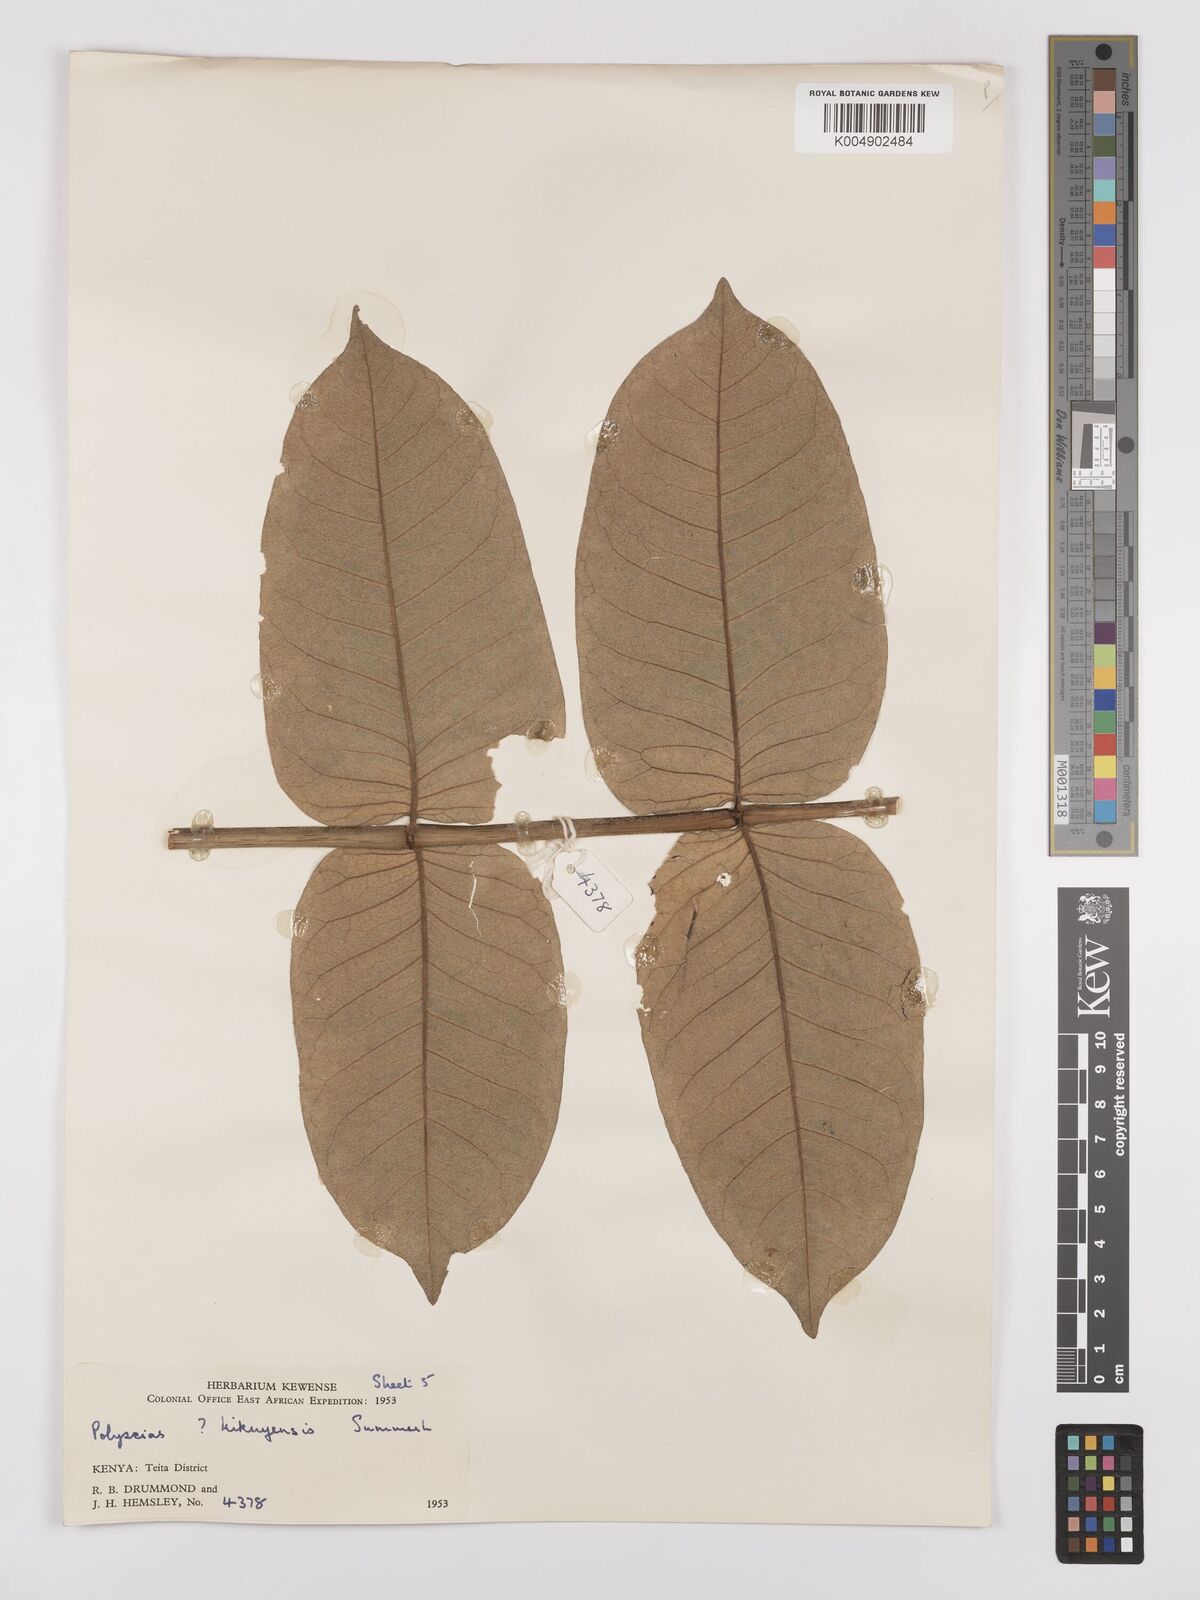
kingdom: Plantae
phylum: Tracheophyta
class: Magnoliopsida
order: Apiales
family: Araliaceae
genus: Polyscias
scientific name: Polyscias fulva
